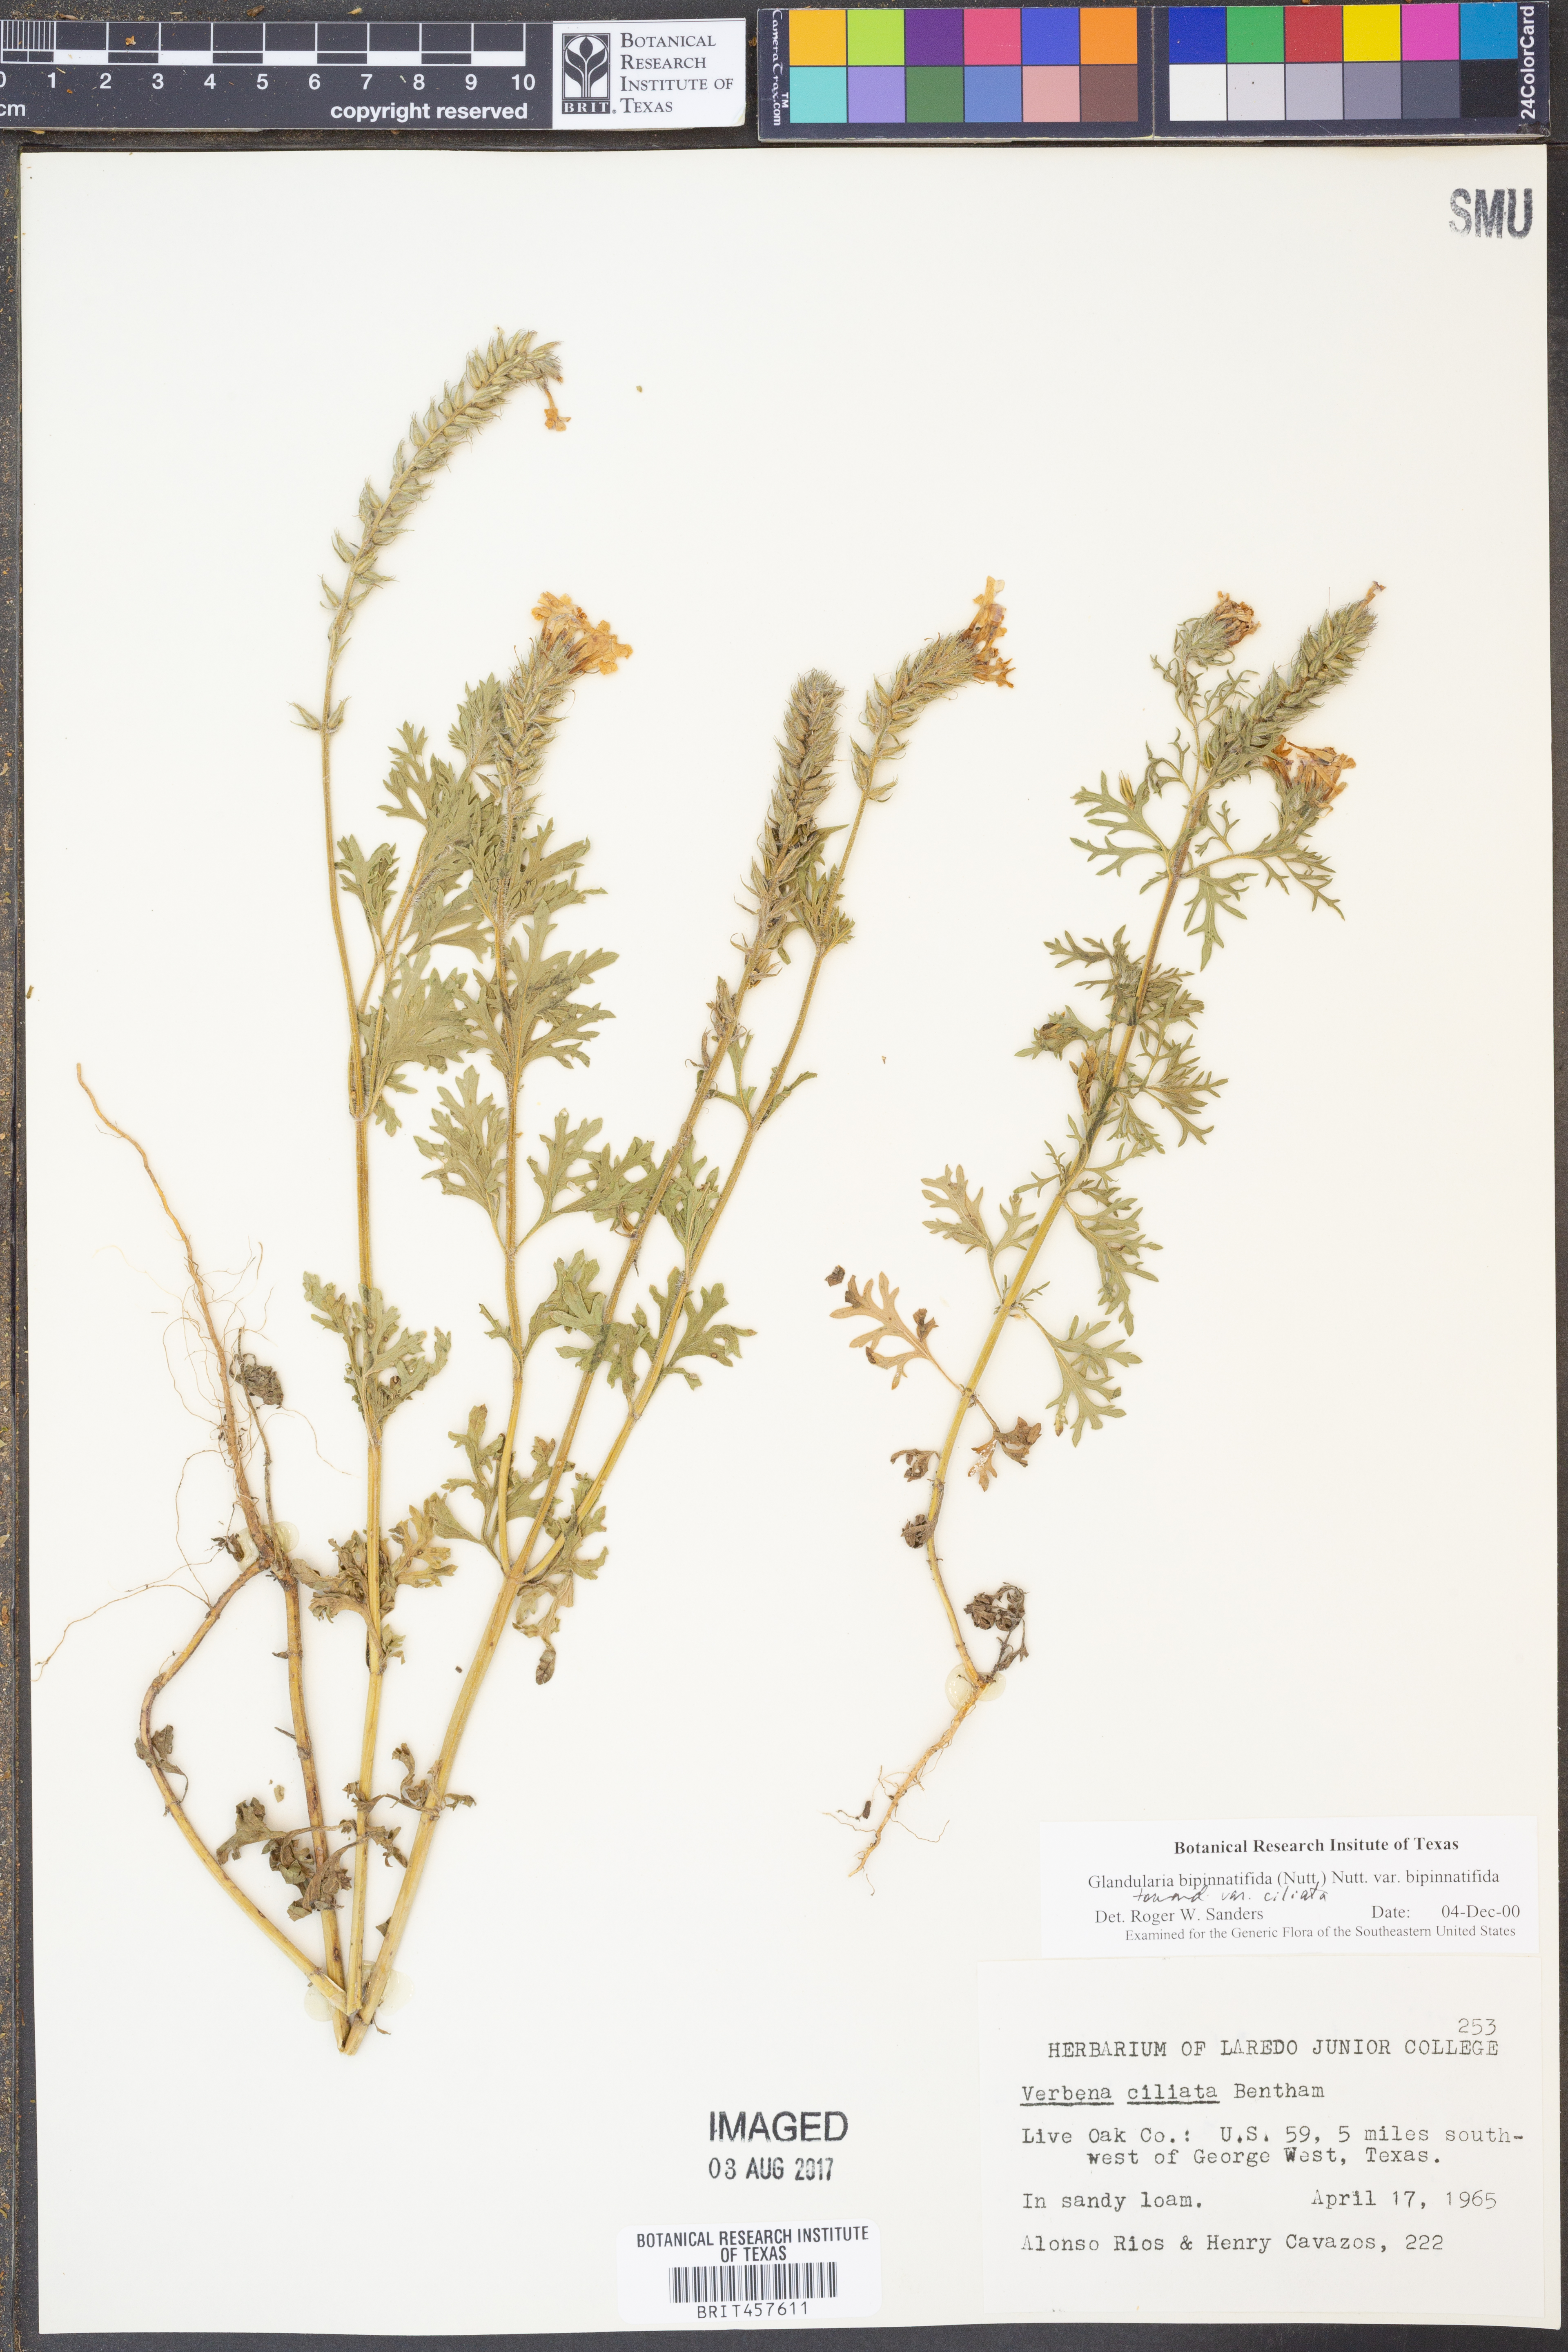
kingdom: Plantae
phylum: Tracheophyta
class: Magnoliopsida
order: Lamiales
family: Verbenaceae
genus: Verbena
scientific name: Verbena bipinnatifida
